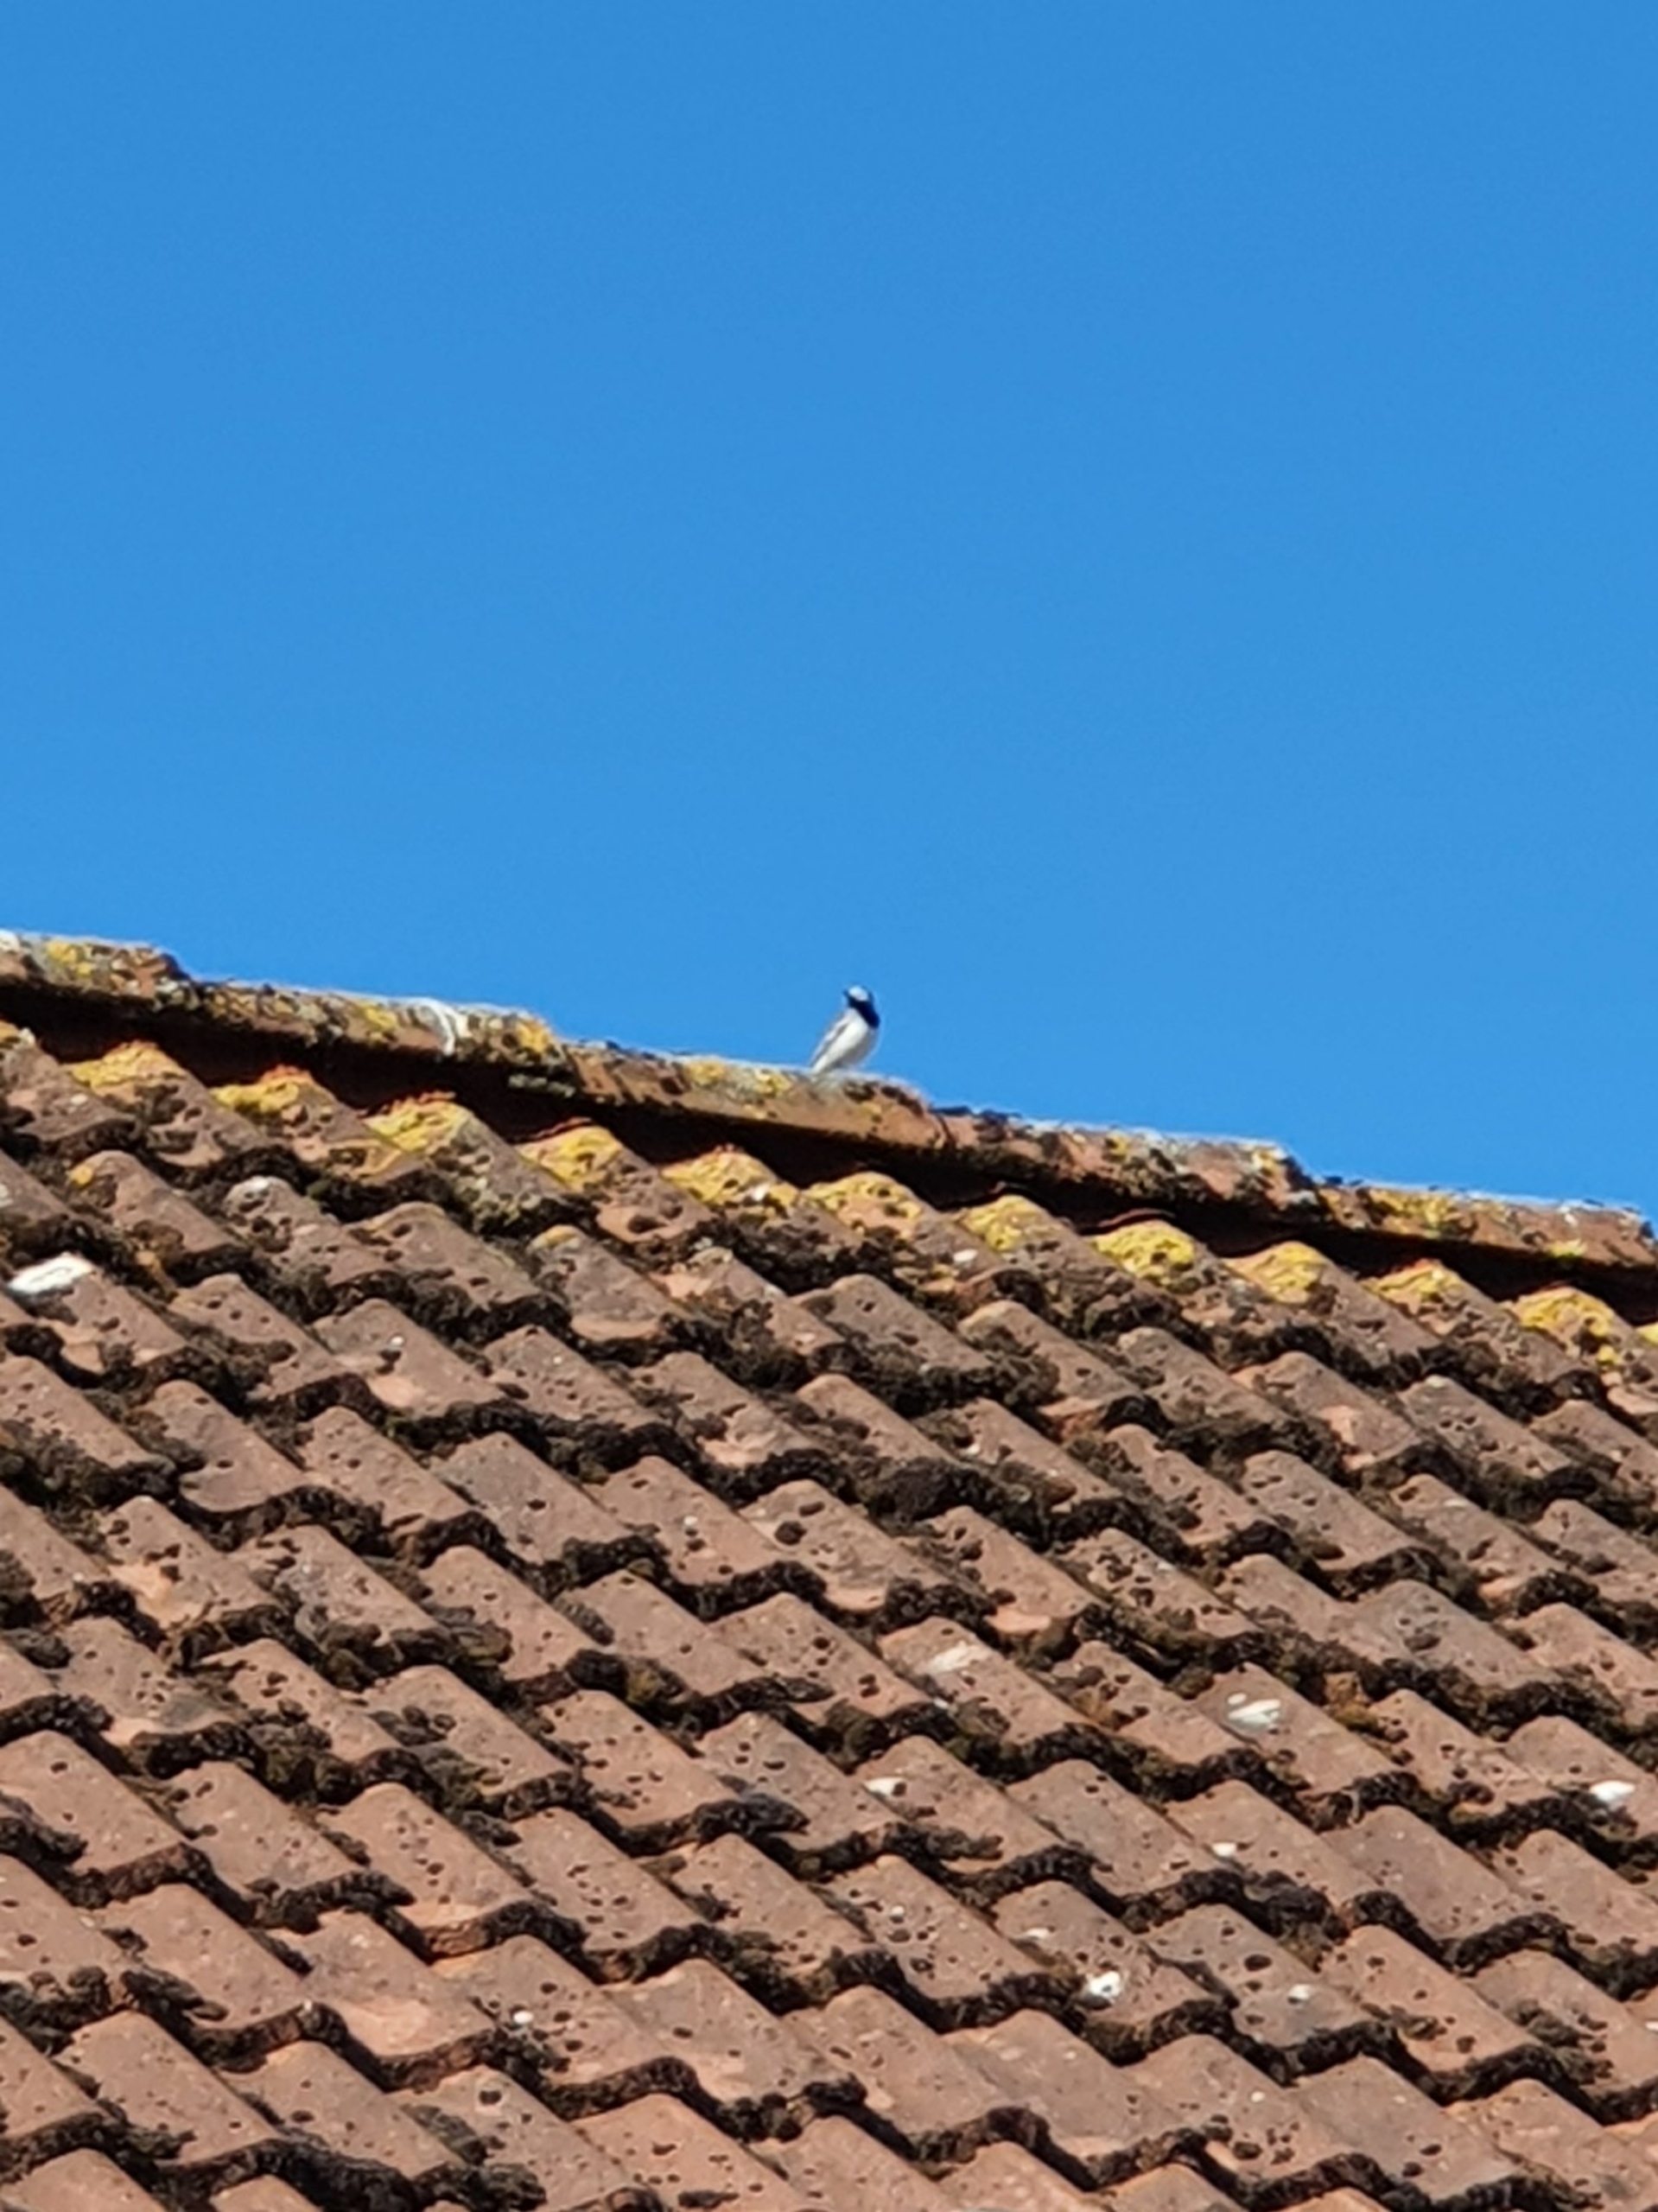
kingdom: Animalia
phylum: Chordata
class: Aves
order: Passeriformes
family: Motacillidae
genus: Motacilla
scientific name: Motacilla alba
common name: Hvid vipstjert
